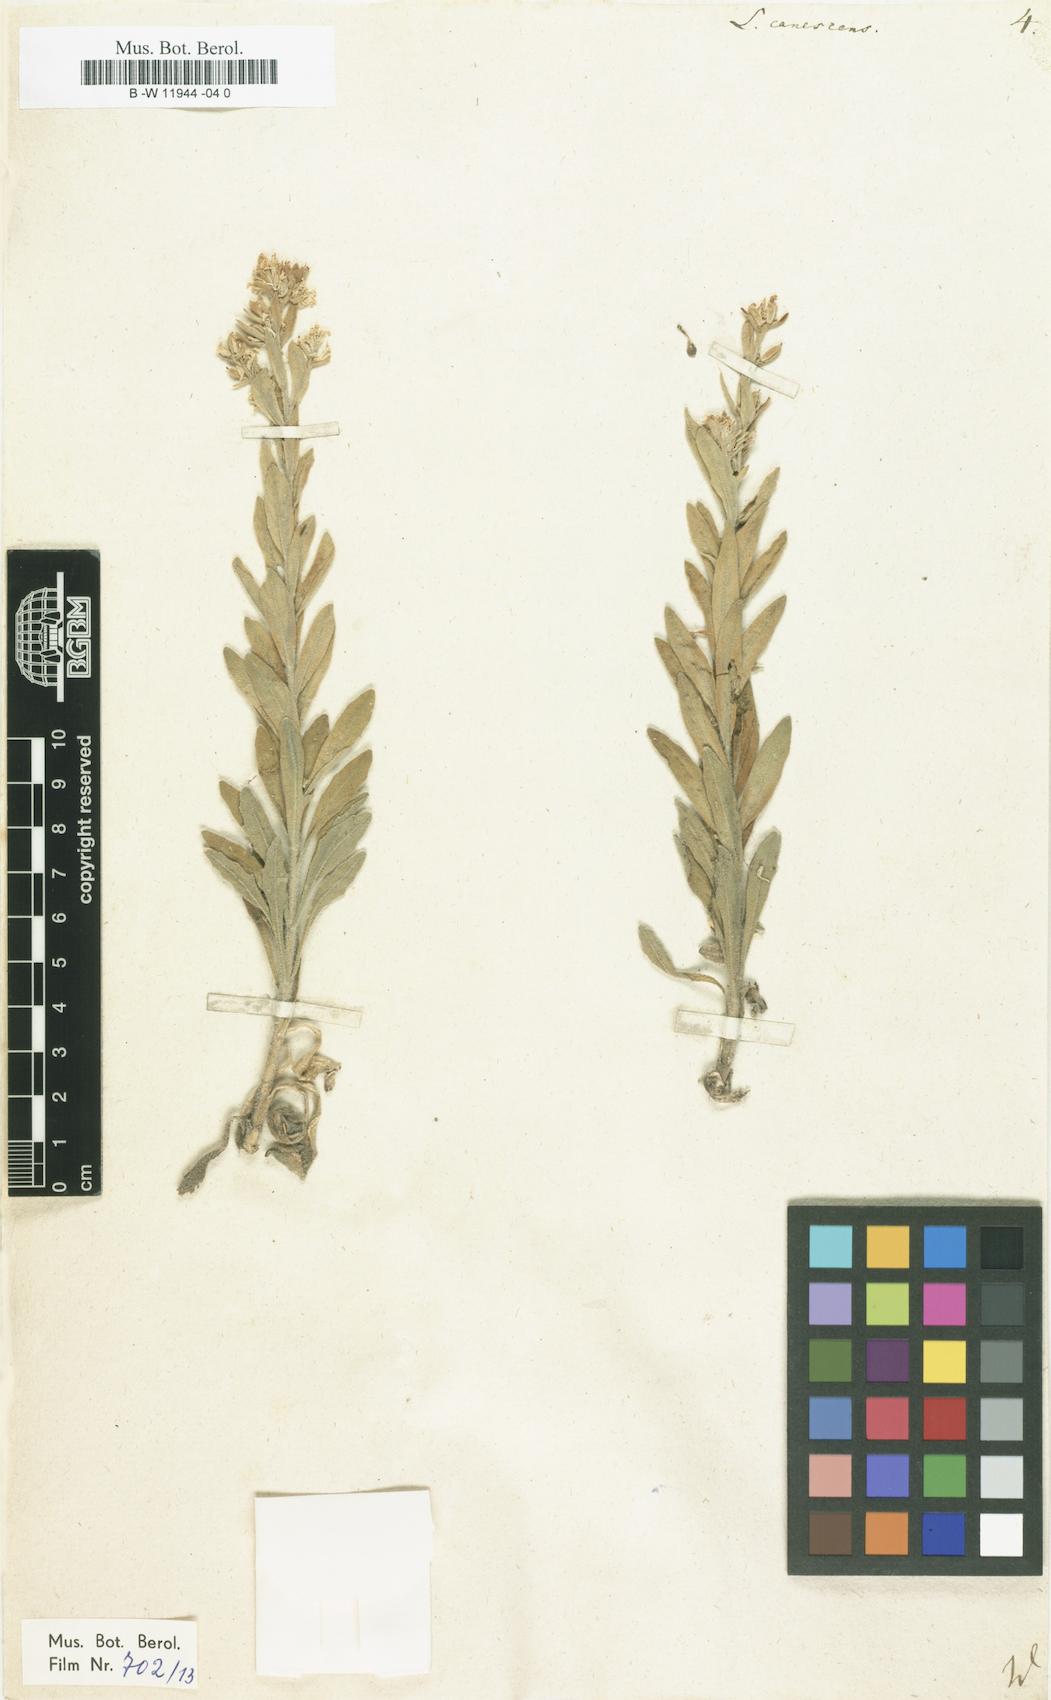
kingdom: Plantae
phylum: Tracheophyta
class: Magnoliopsida
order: Brassicales
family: Brassicaceae
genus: Fibigia
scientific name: Fibigia clypeata
